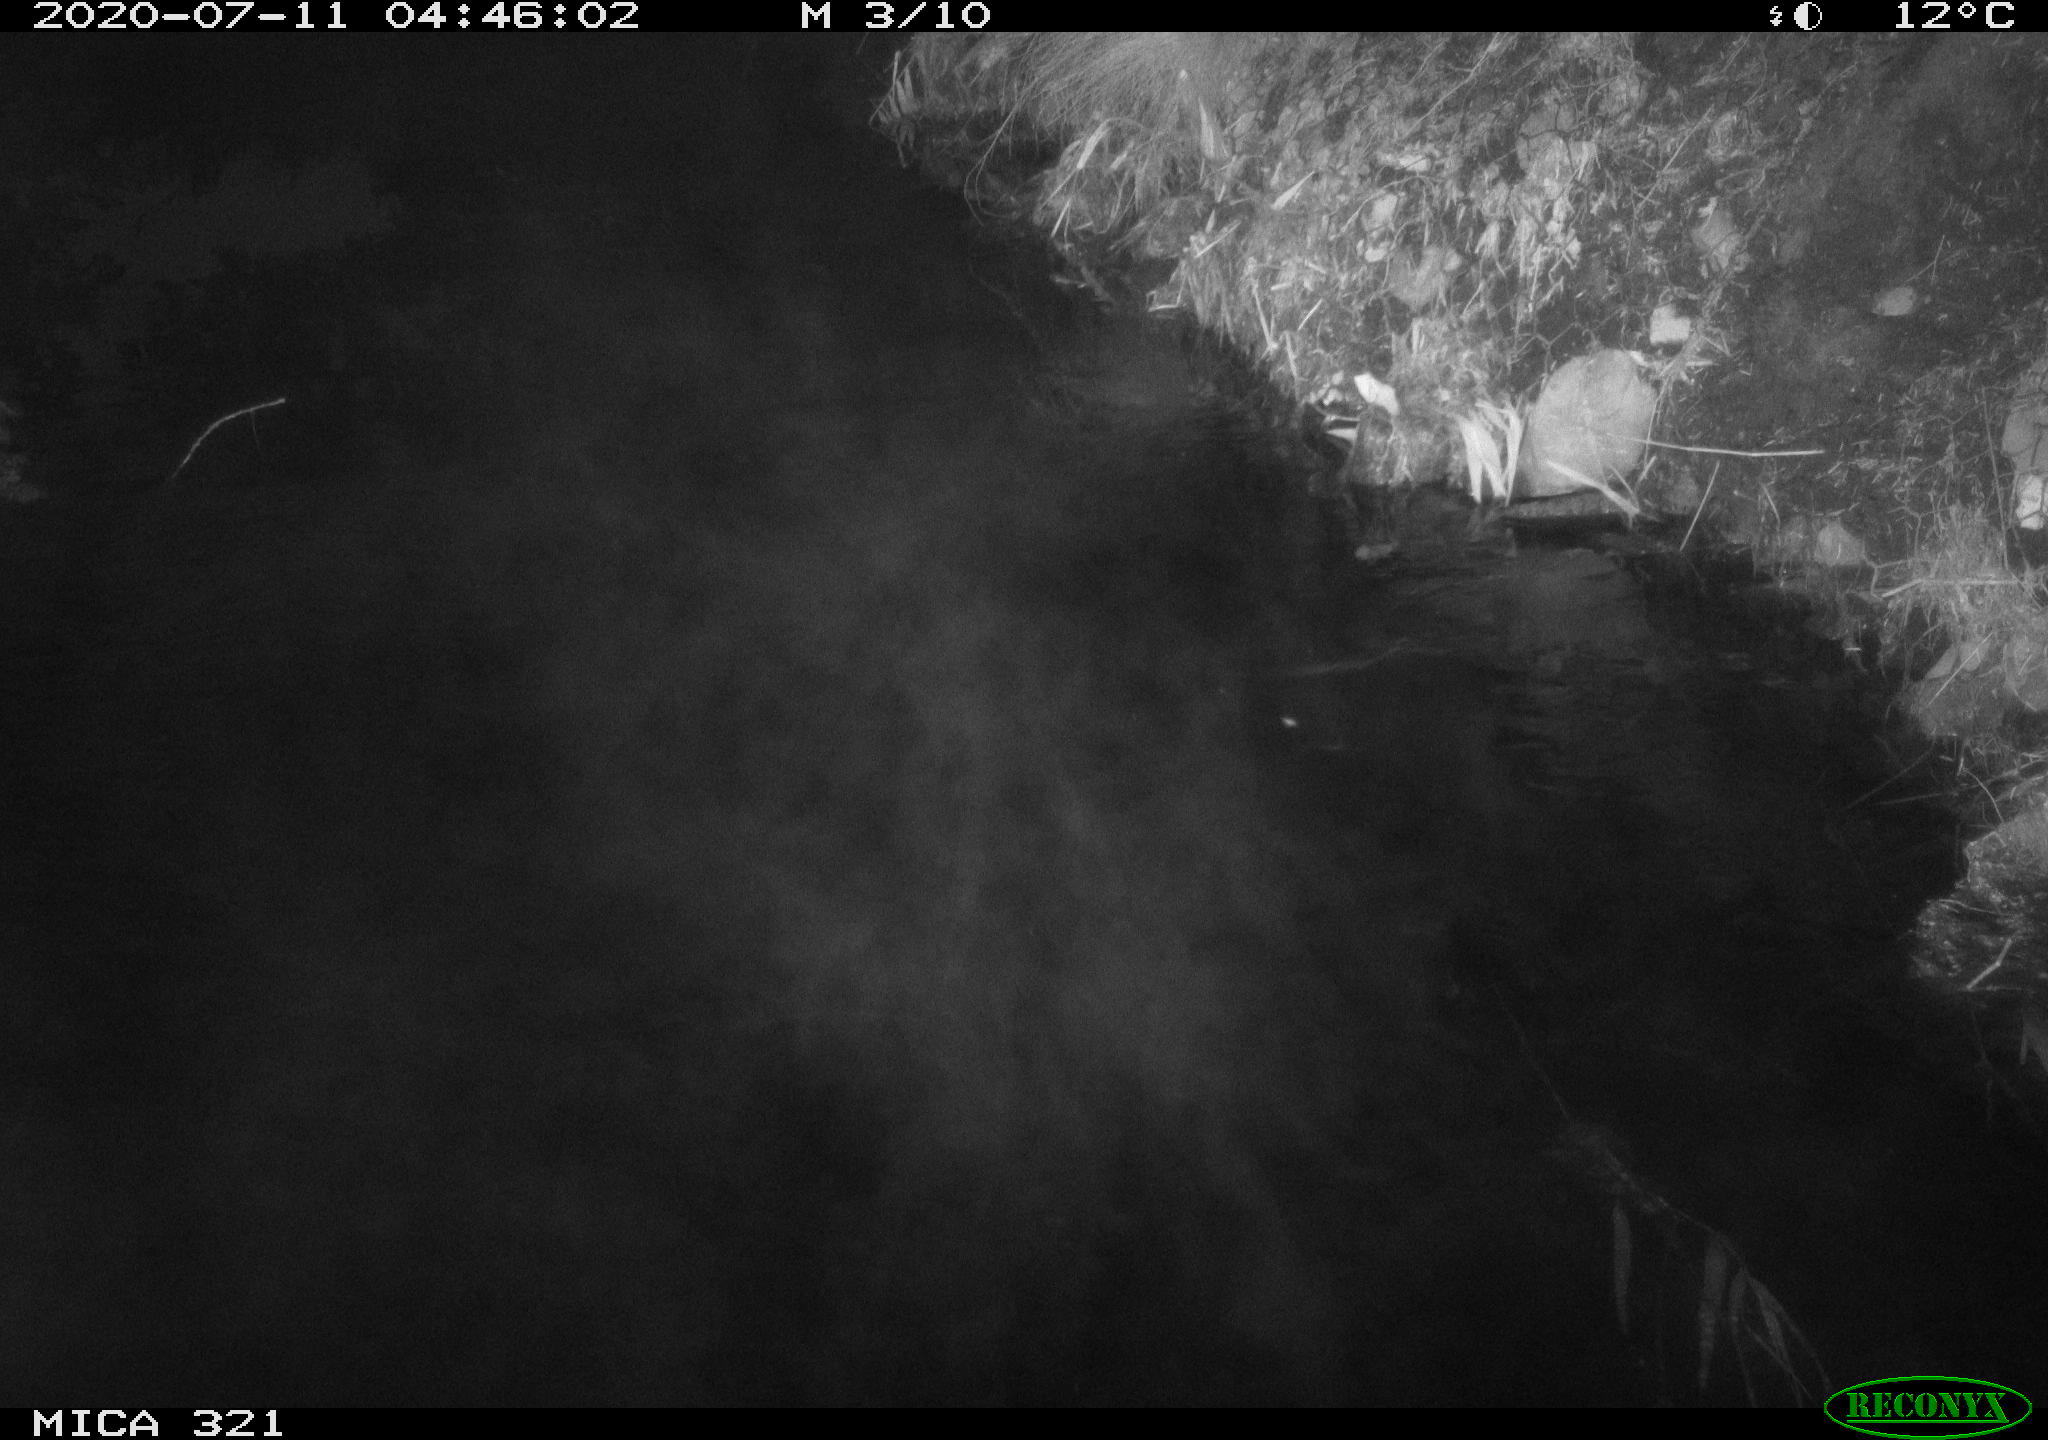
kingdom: Animalia
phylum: Chordata
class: Aves
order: Anseriformes
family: Anatidae
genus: Anas
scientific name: Anas platyrhynchos
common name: Mallard
